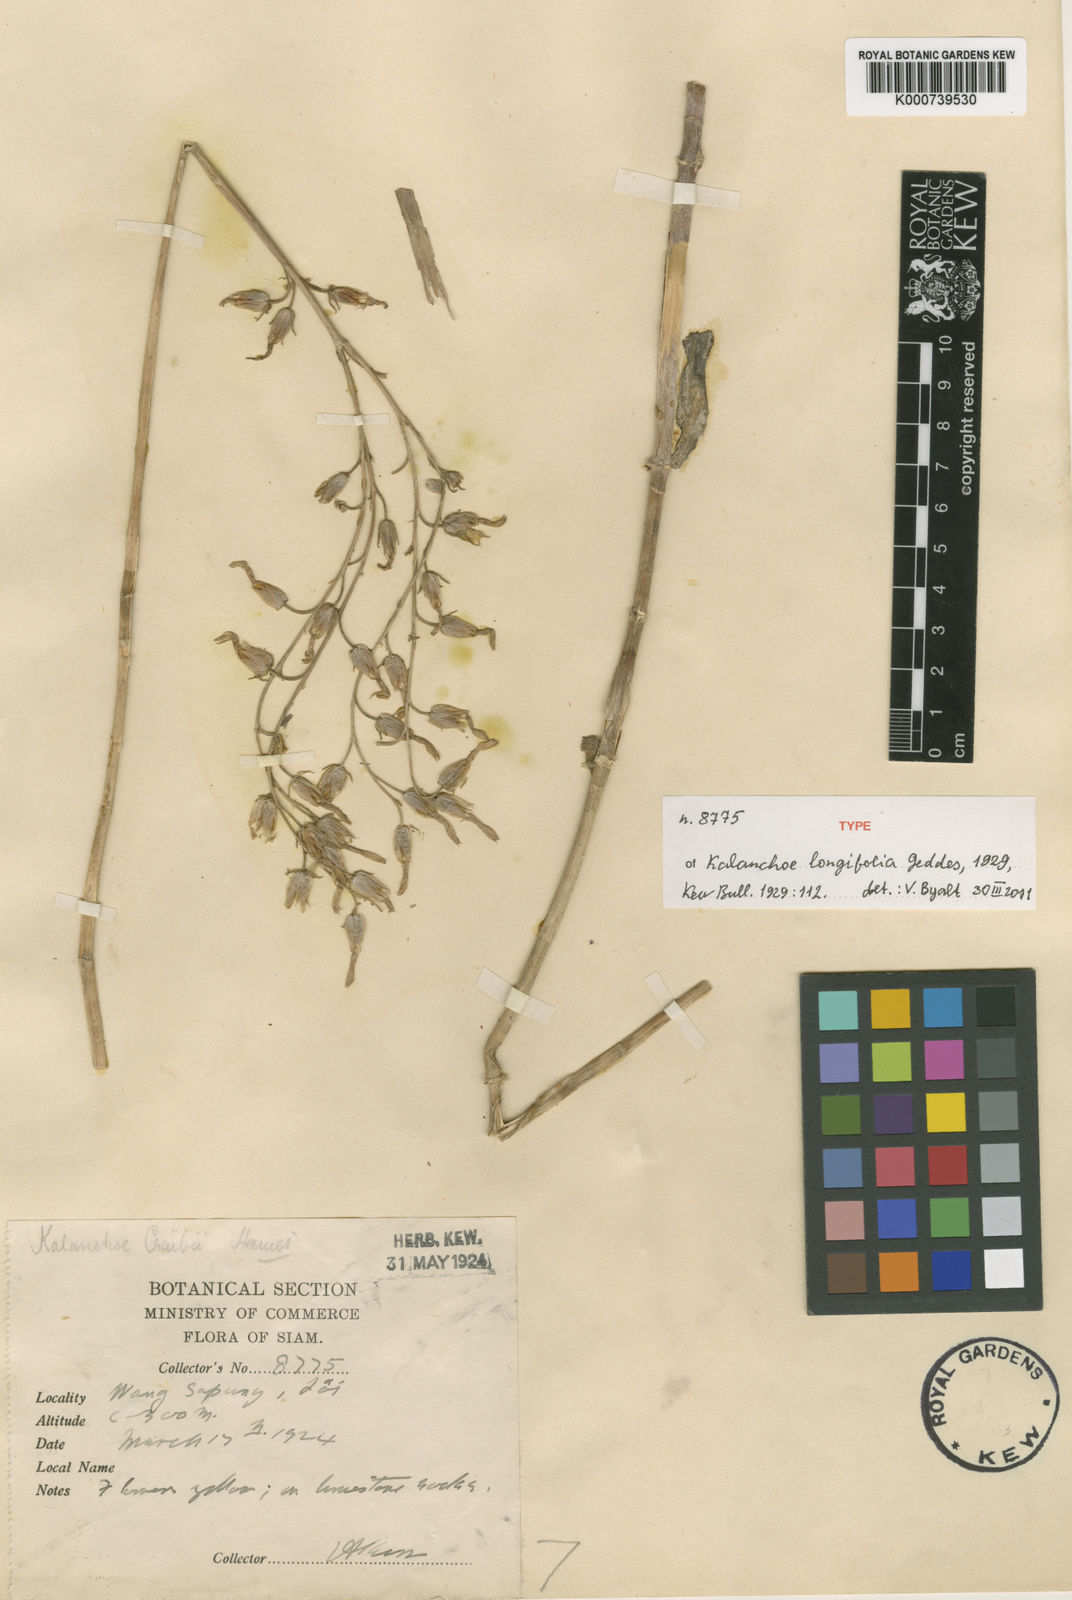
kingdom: Plantae
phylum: Tracheophyta
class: Magnoliopsida
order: Saxifragales
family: Crassulaceae
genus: Kalanchoe
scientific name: Kalanchoe longifolia
